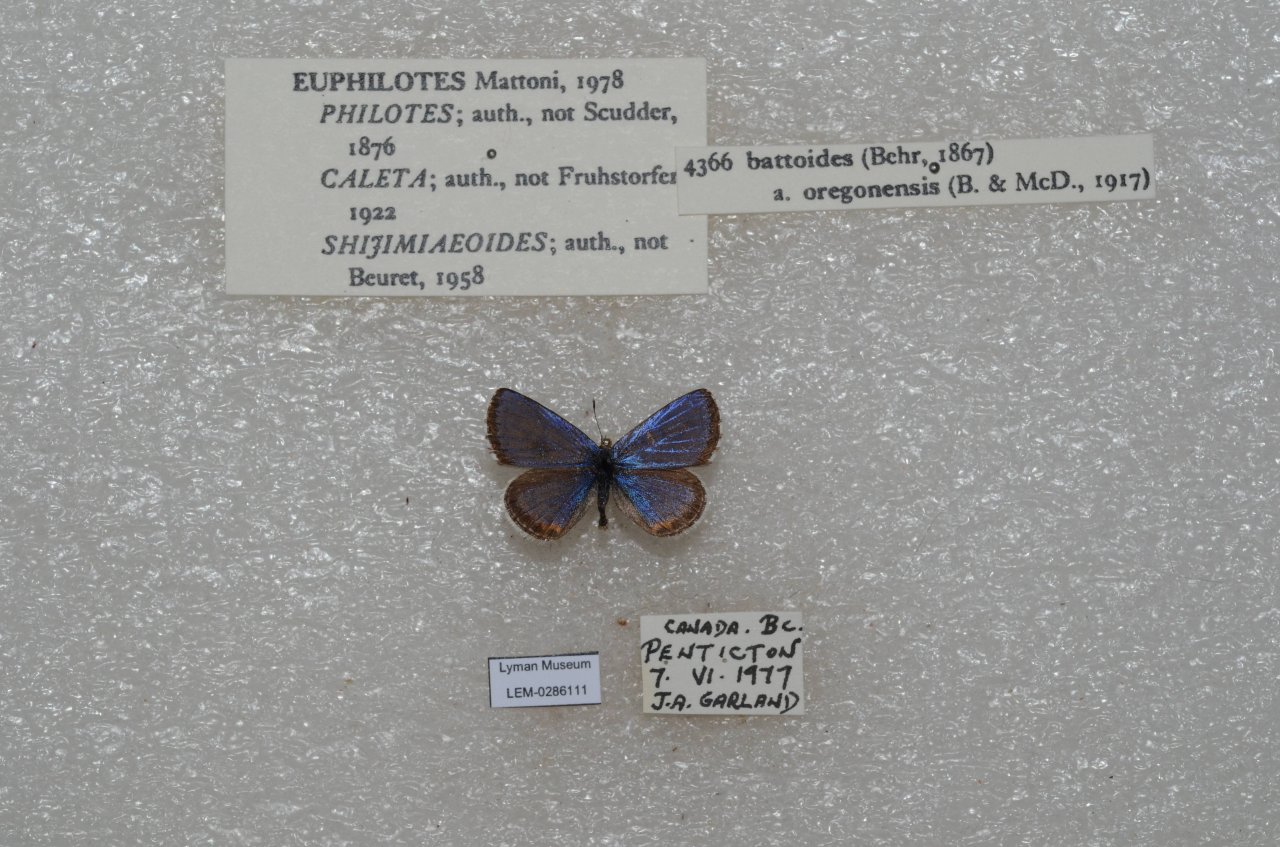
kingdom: Animalia
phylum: Arthropoda
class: Insecta
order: Lepidoptera
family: Lycaenidae
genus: Euphilotes
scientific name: Euphilotes battoides
